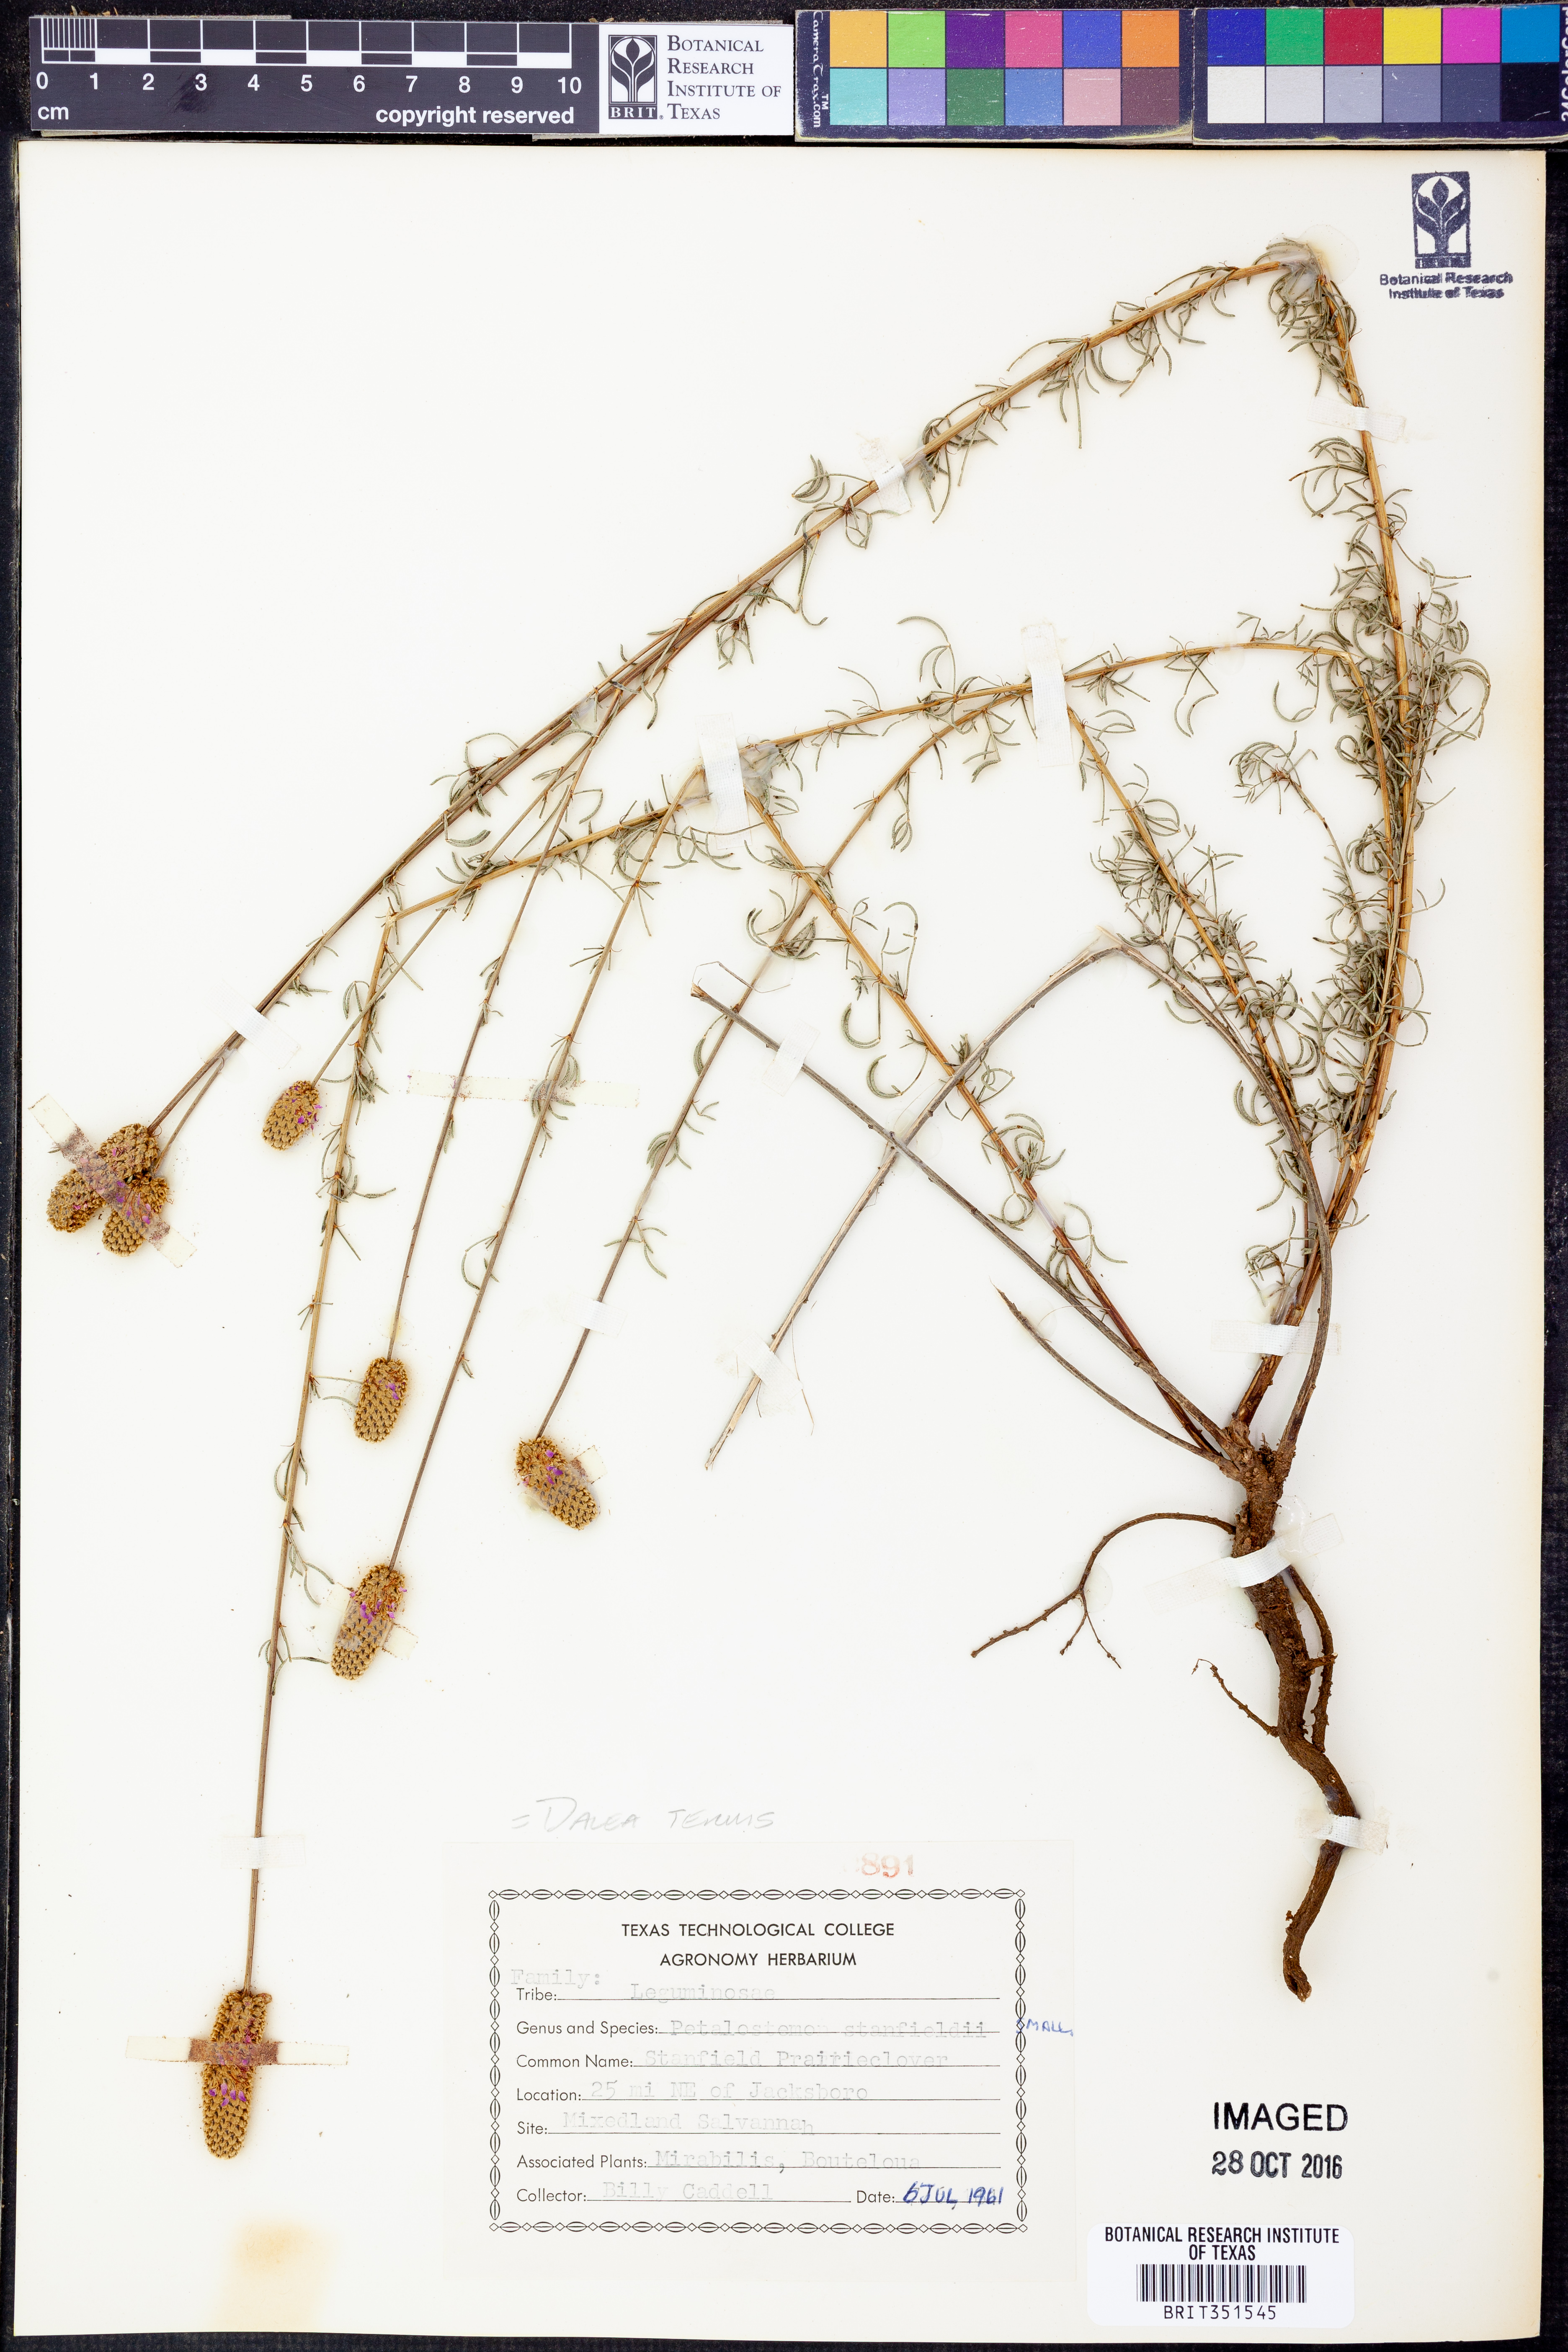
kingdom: Plantae
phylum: Tracheophyta
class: Magnoliopsida
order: Fabales
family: Fabaceae
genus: Dalea
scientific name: Dalea tenuis
